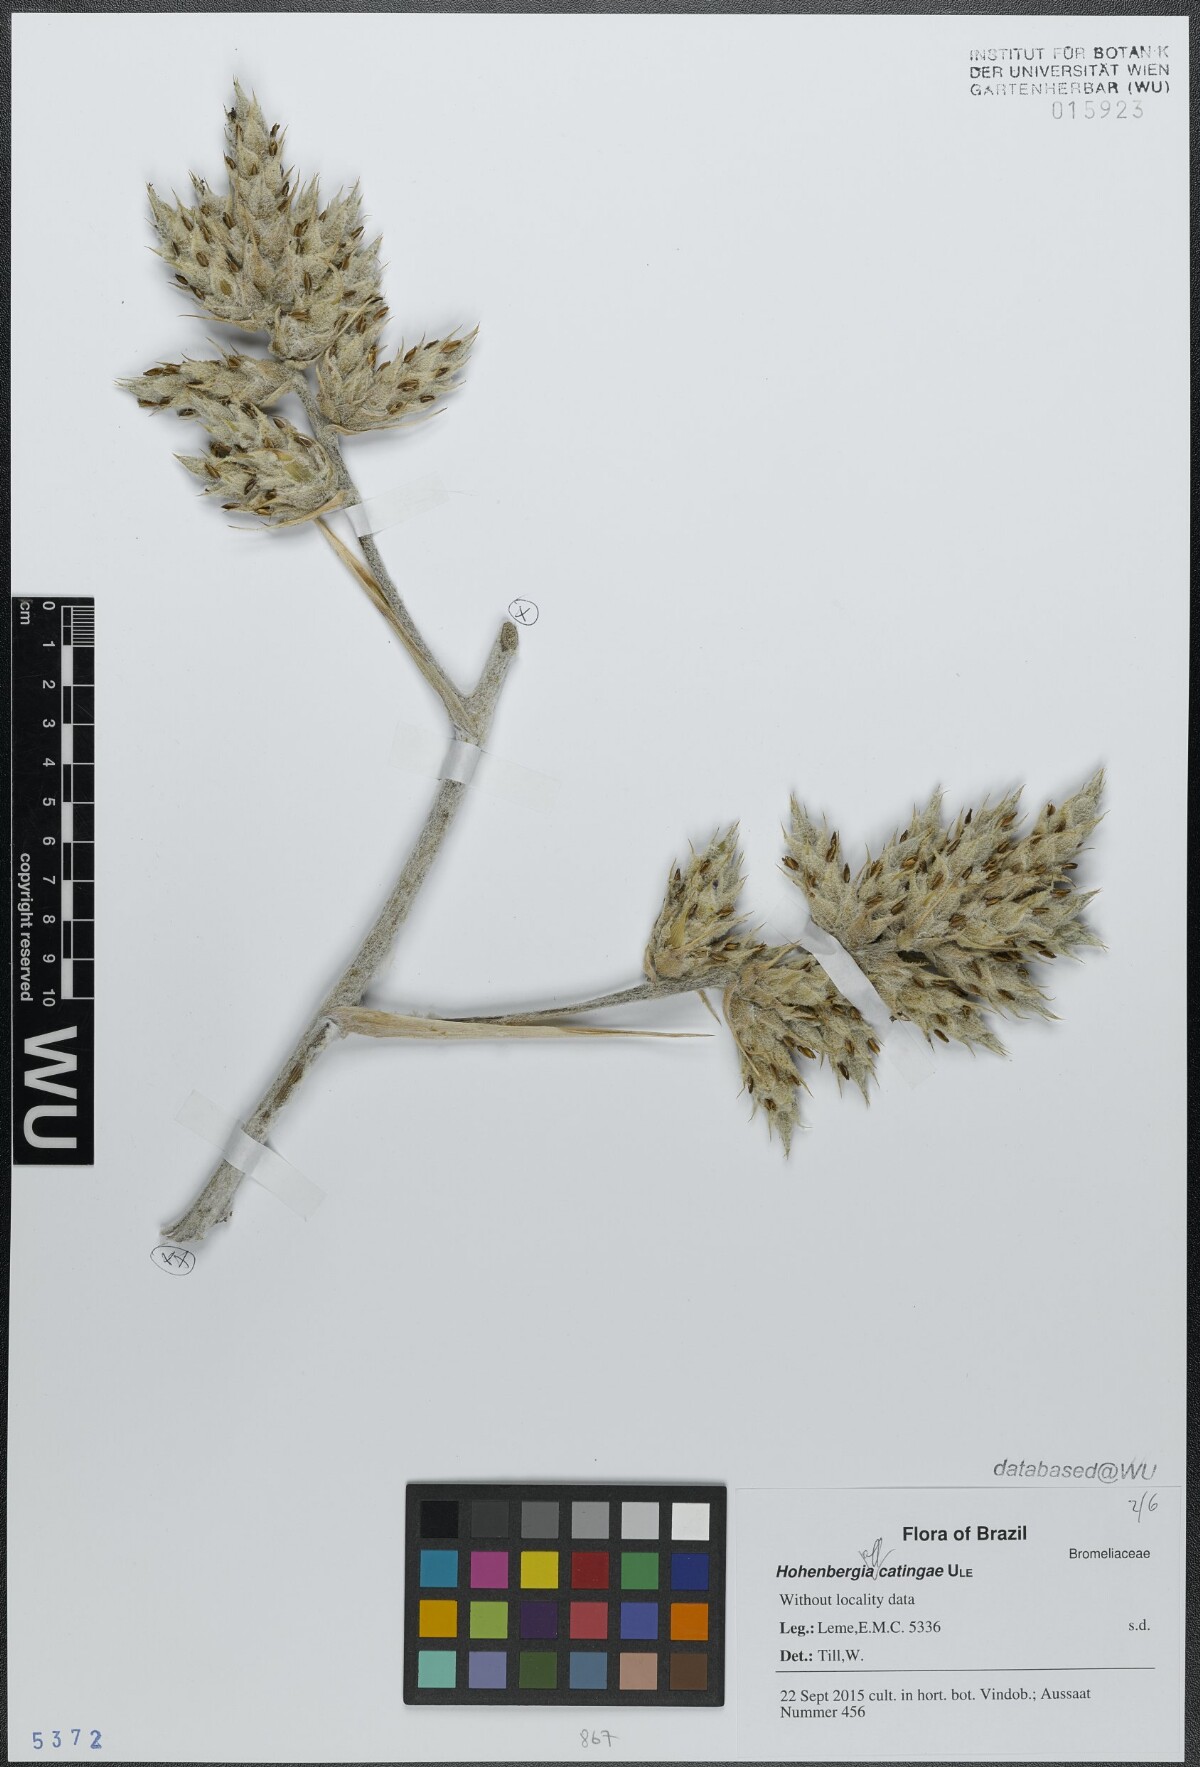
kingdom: Plantae
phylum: Tracheophyta
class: Liliopsida
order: Poales
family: Bromeliaceae
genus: Hohenbergia
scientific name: Hohenbergia catingae
